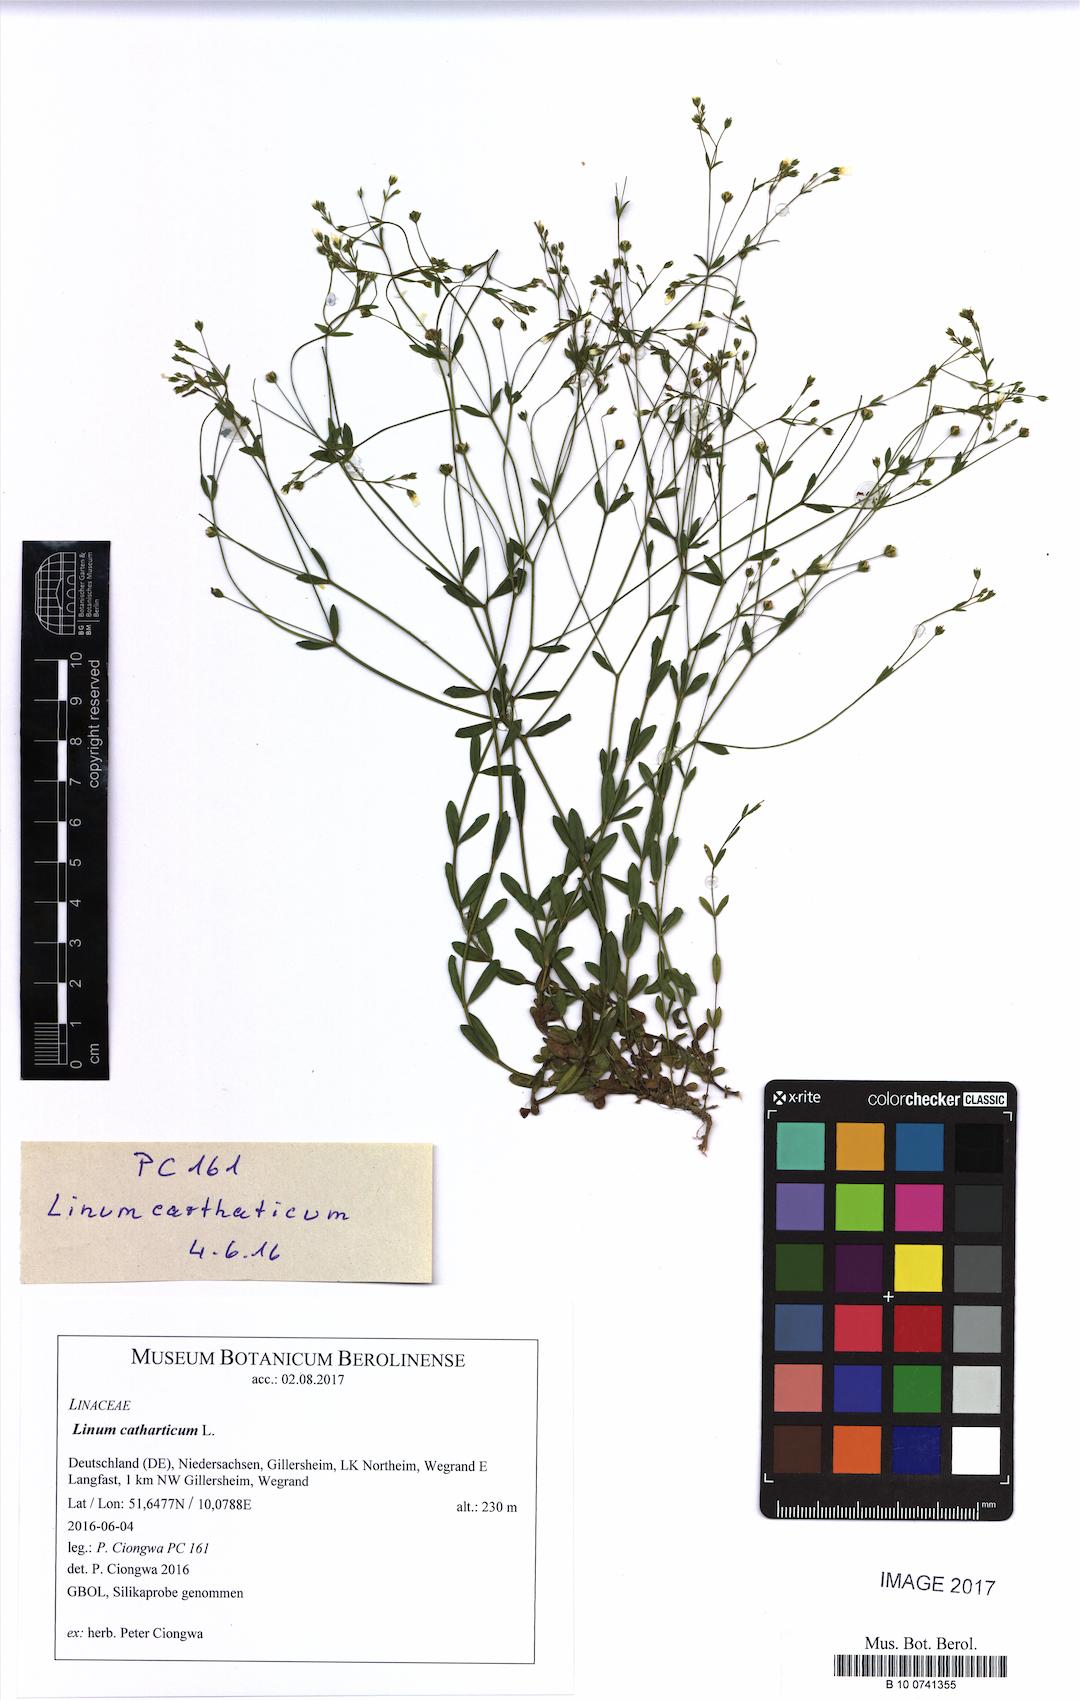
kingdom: Plantae
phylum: Tracheophyta
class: Magnoliopsida
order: Malpighiales
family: Linaceae
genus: Linum
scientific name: Linum catharticum
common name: Fairy flax
